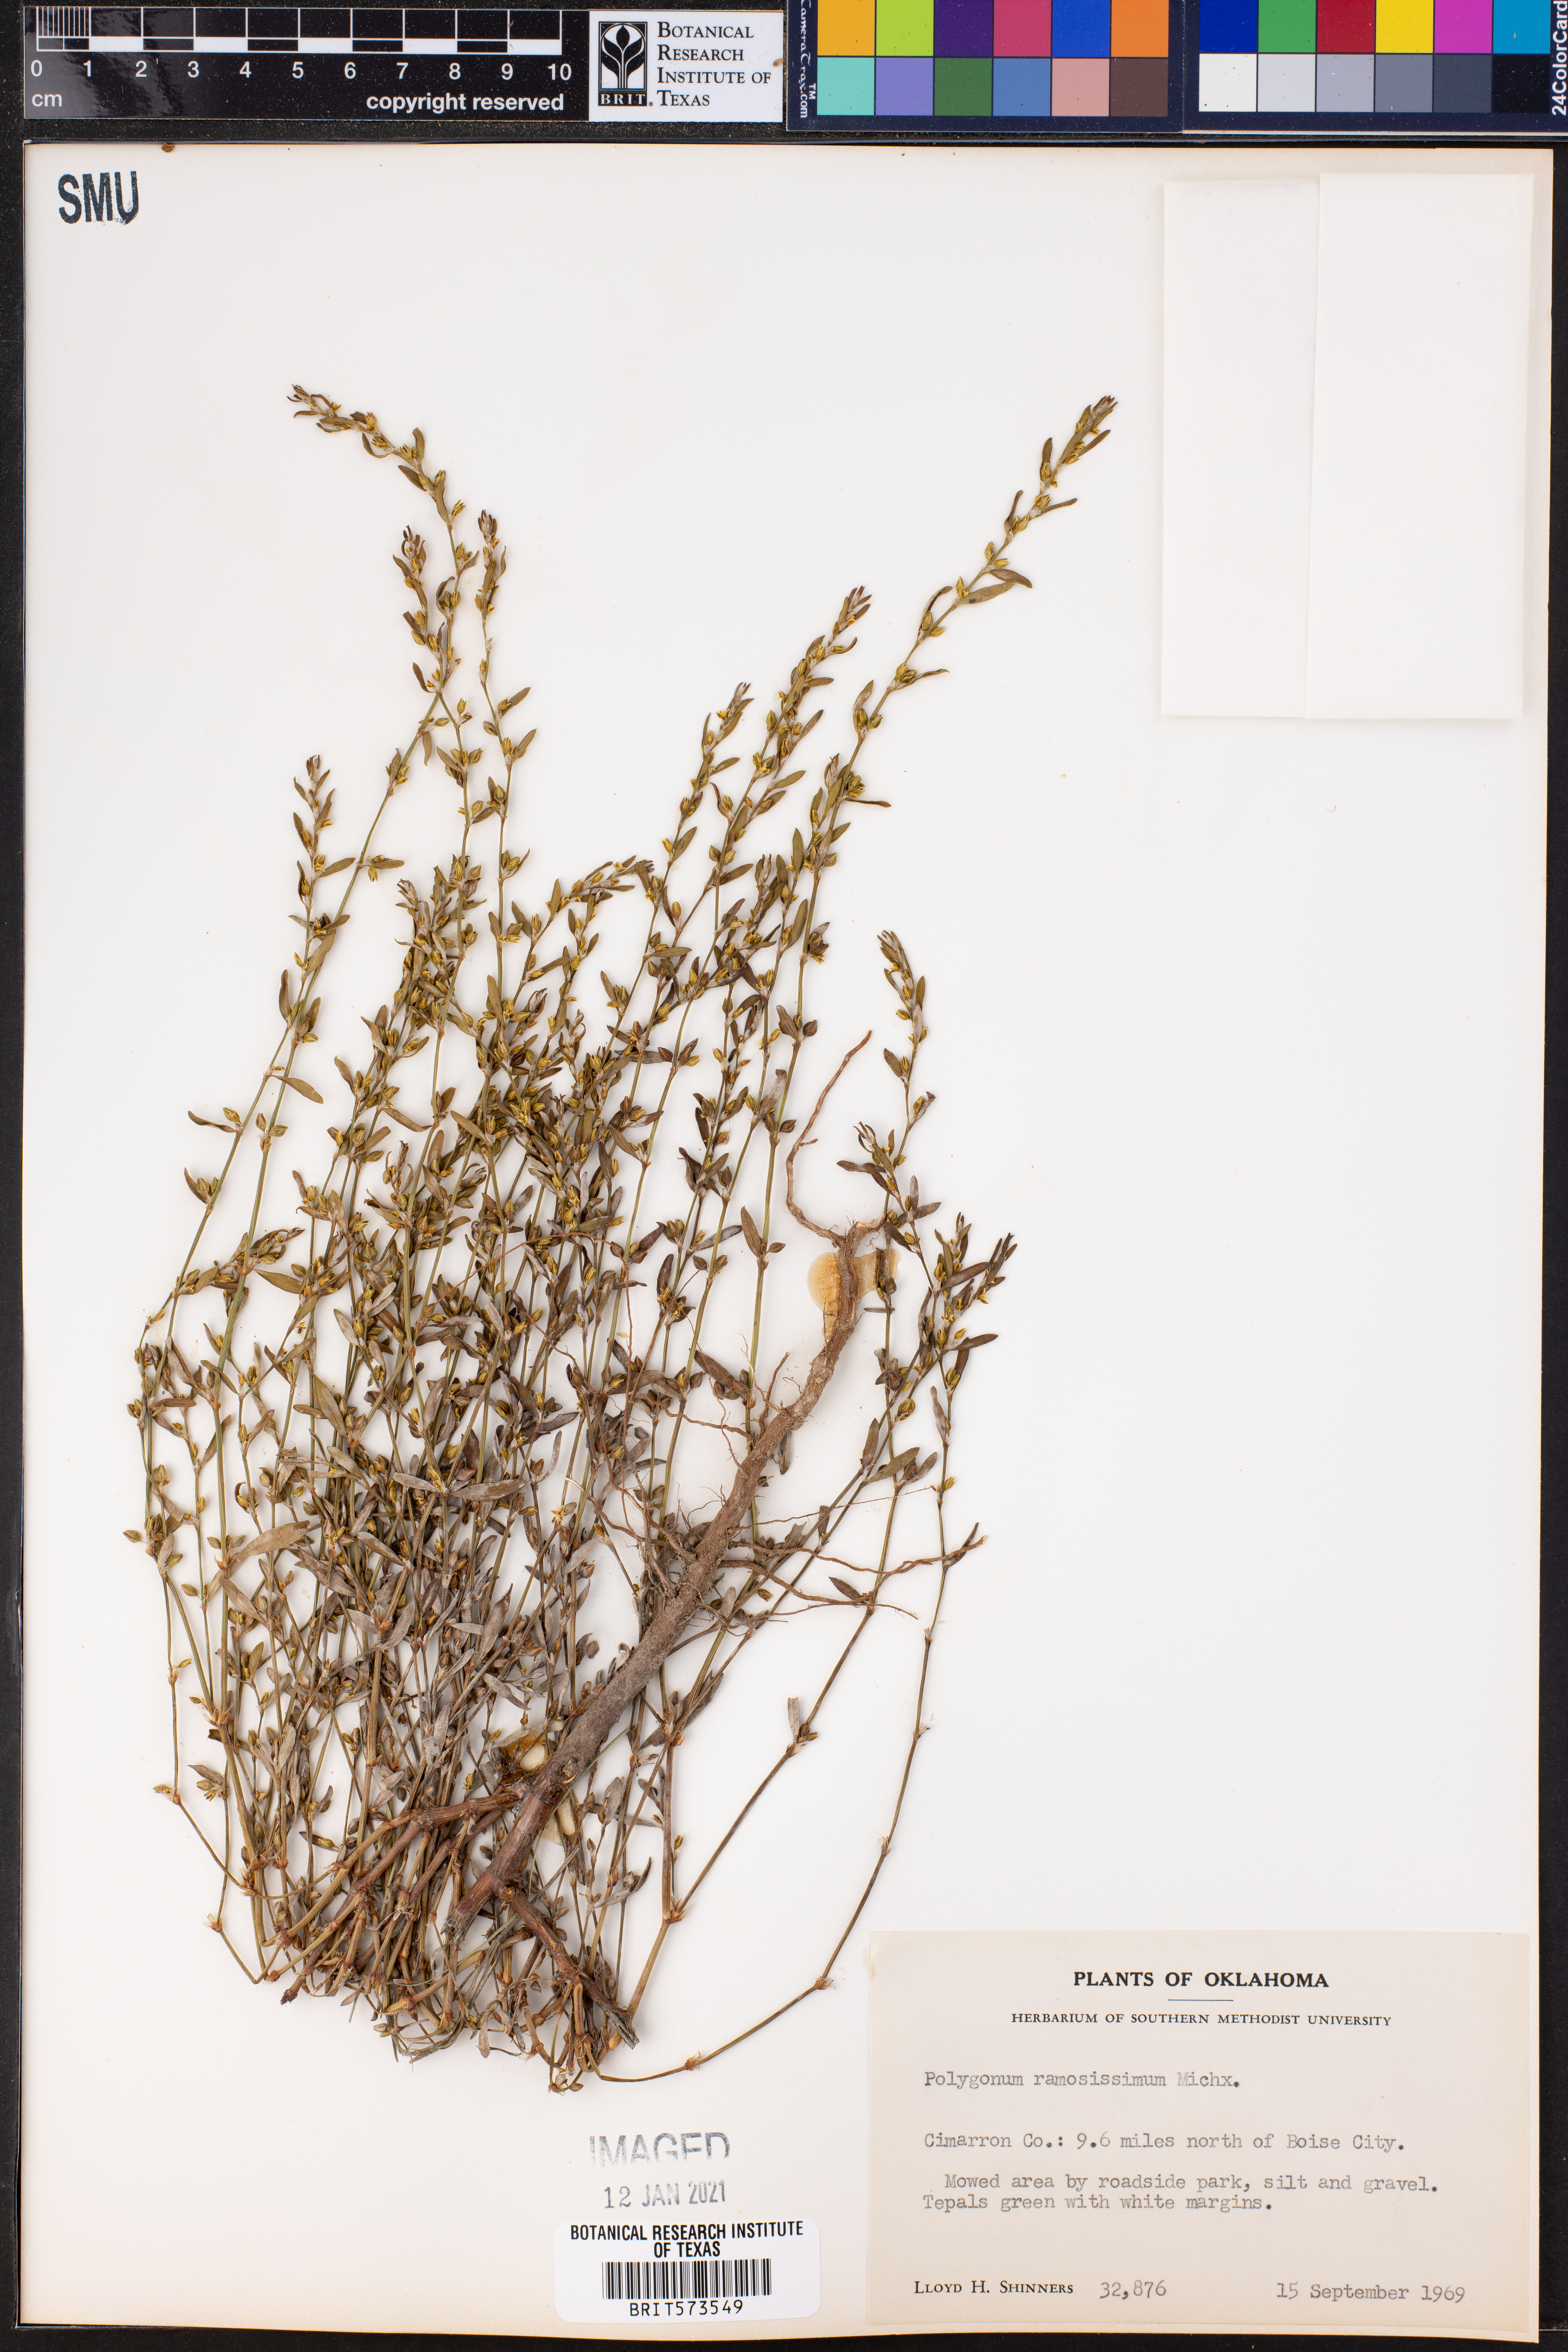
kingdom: Plantae
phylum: Tracheophyta
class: Magnoliopsida
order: Caryophyllales
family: Polygonaceae
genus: Polygonum
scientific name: Polygonum ramosissimum
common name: Bushy knotweed
